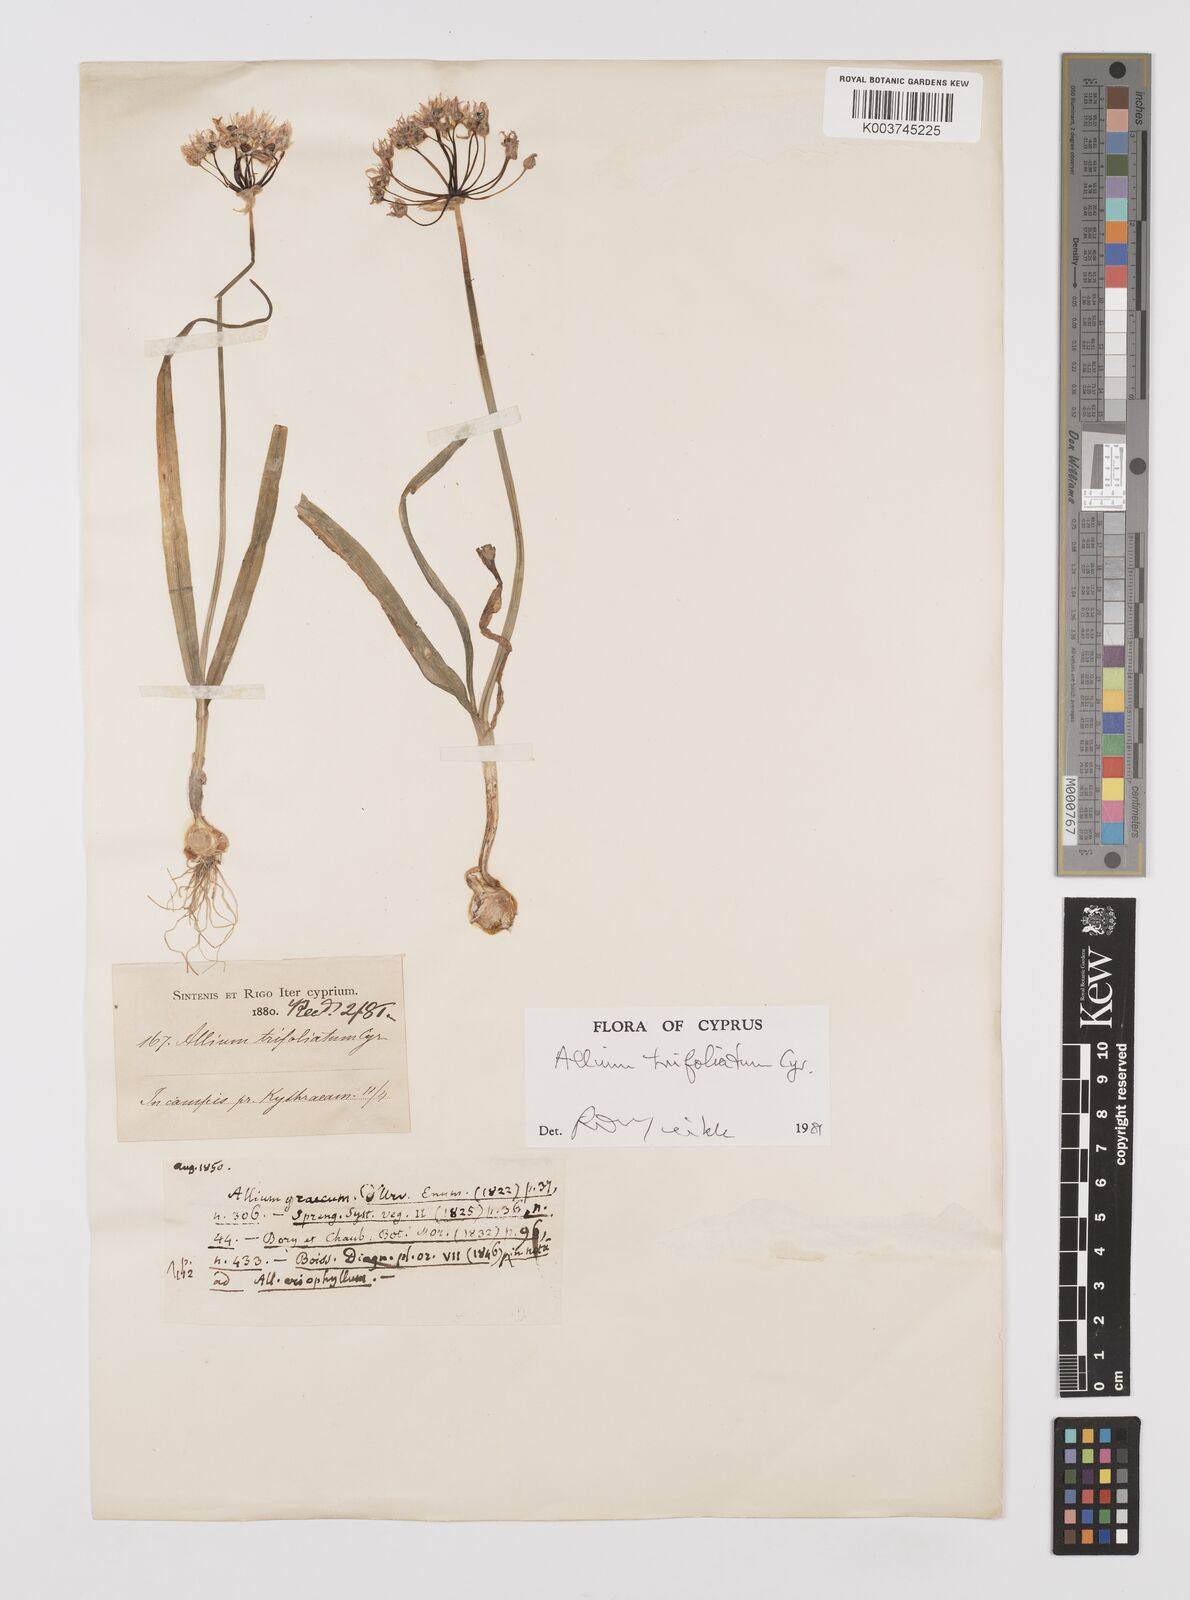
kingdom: Plantae
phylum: Tracheophyta
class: Liliopsida
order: Asparagales
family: Amaryllidaceae
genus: Allium
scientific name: Allium subhirsutum
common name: Hairy garlic
